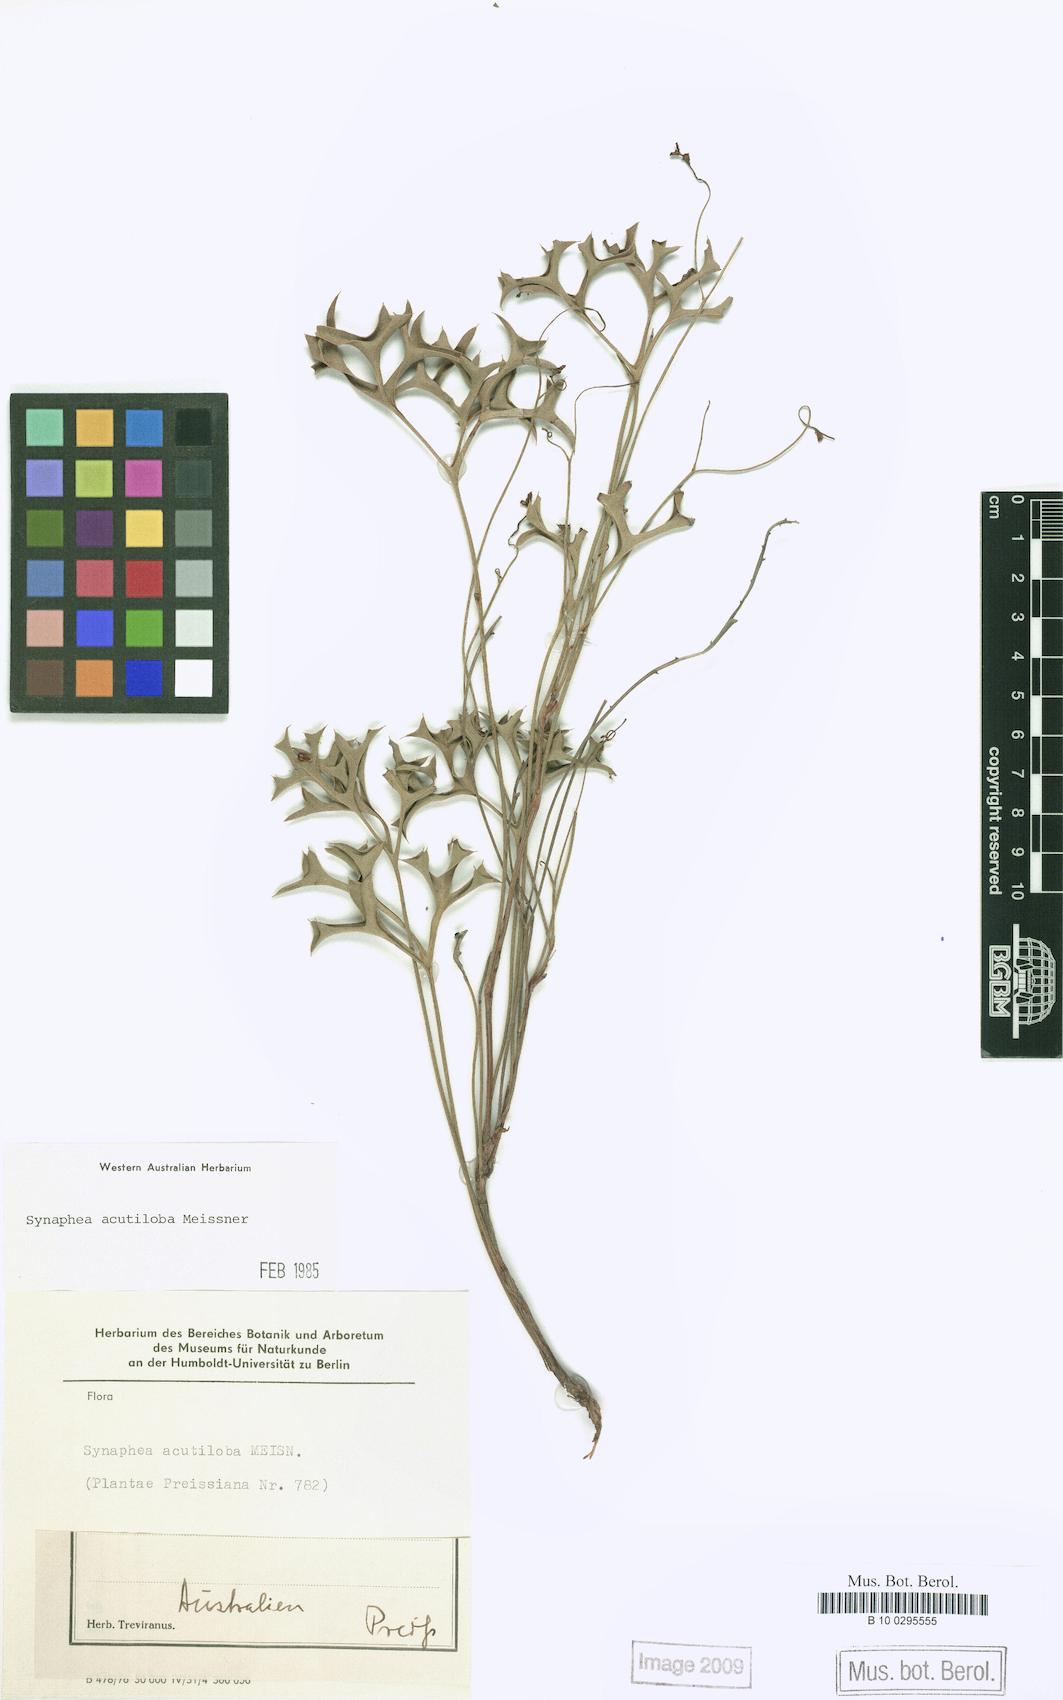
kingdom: Plantae
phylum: Tracheophyta
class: Magnoliopsida
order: Proteales
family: Proteaceae
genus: Synaphea
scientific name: Synaphea acutiloba
